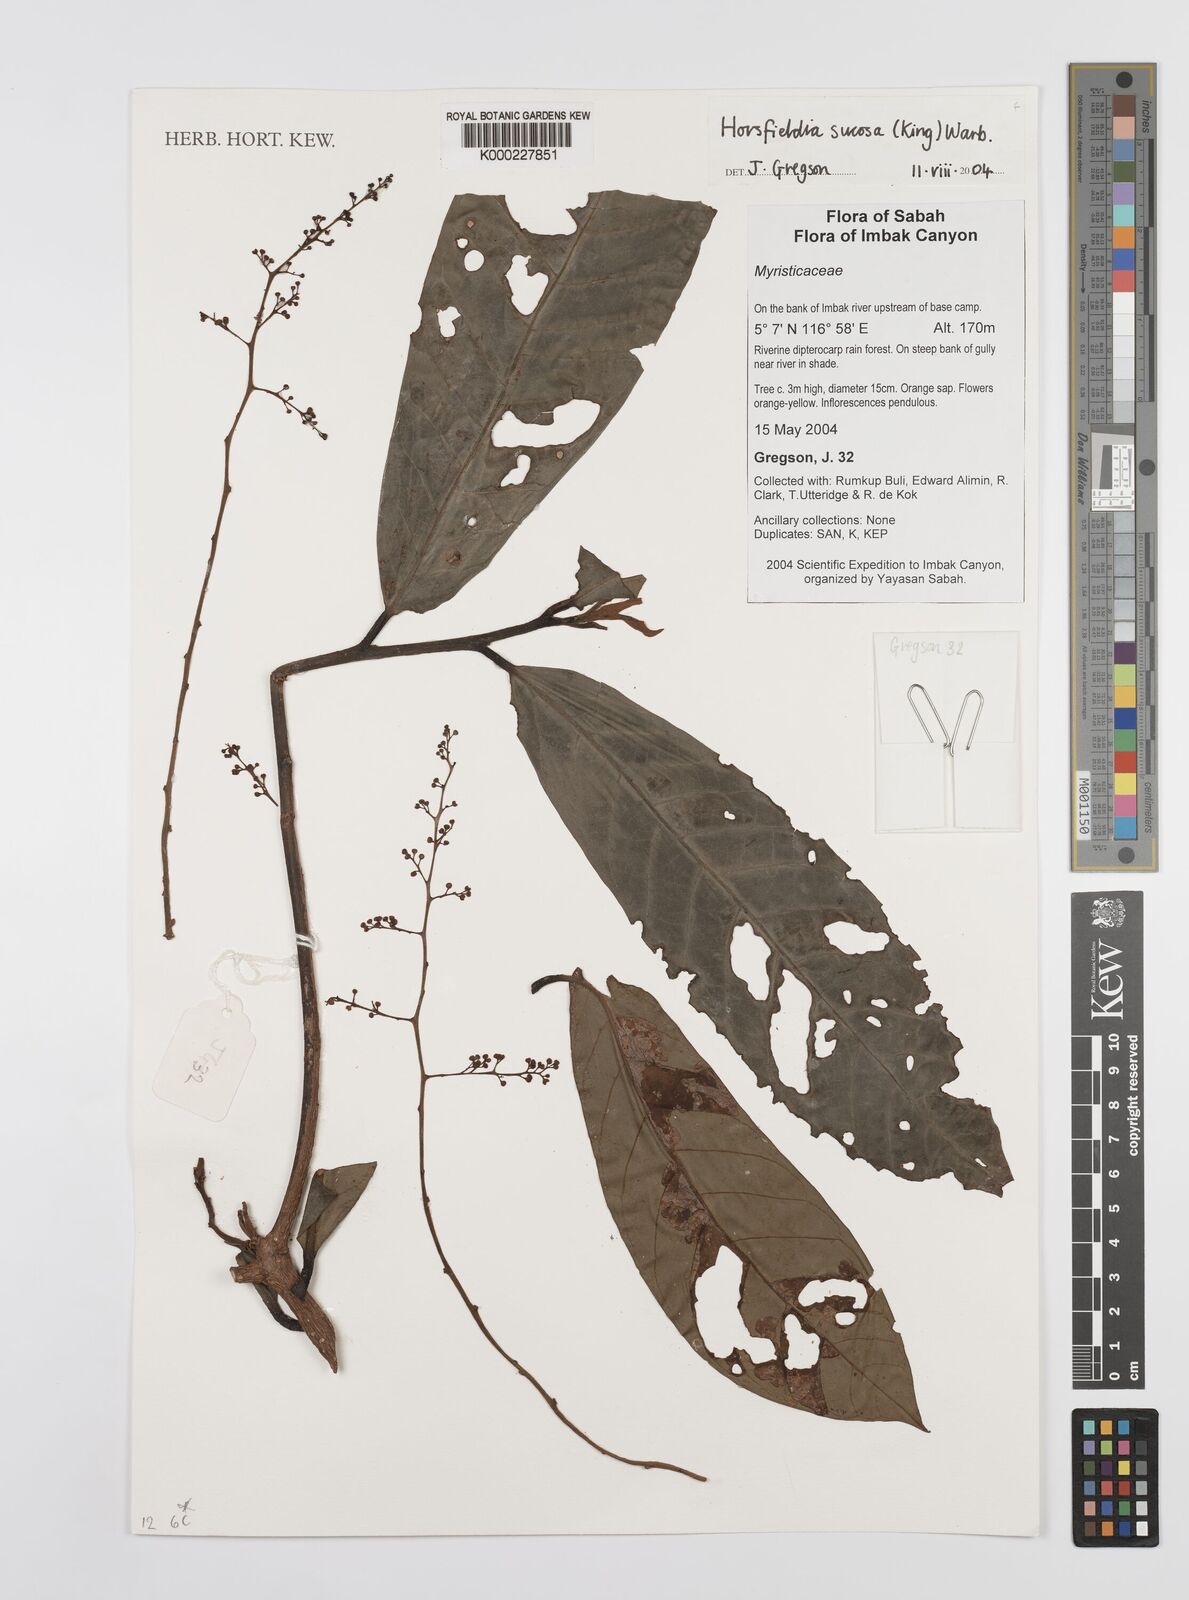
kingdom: Plantae
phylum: Tracheophyta
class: Magnoliopsida
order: Magnoliales
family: Myristicaceae
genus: Horsfieldia
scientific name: Horsfieldia sucosa
